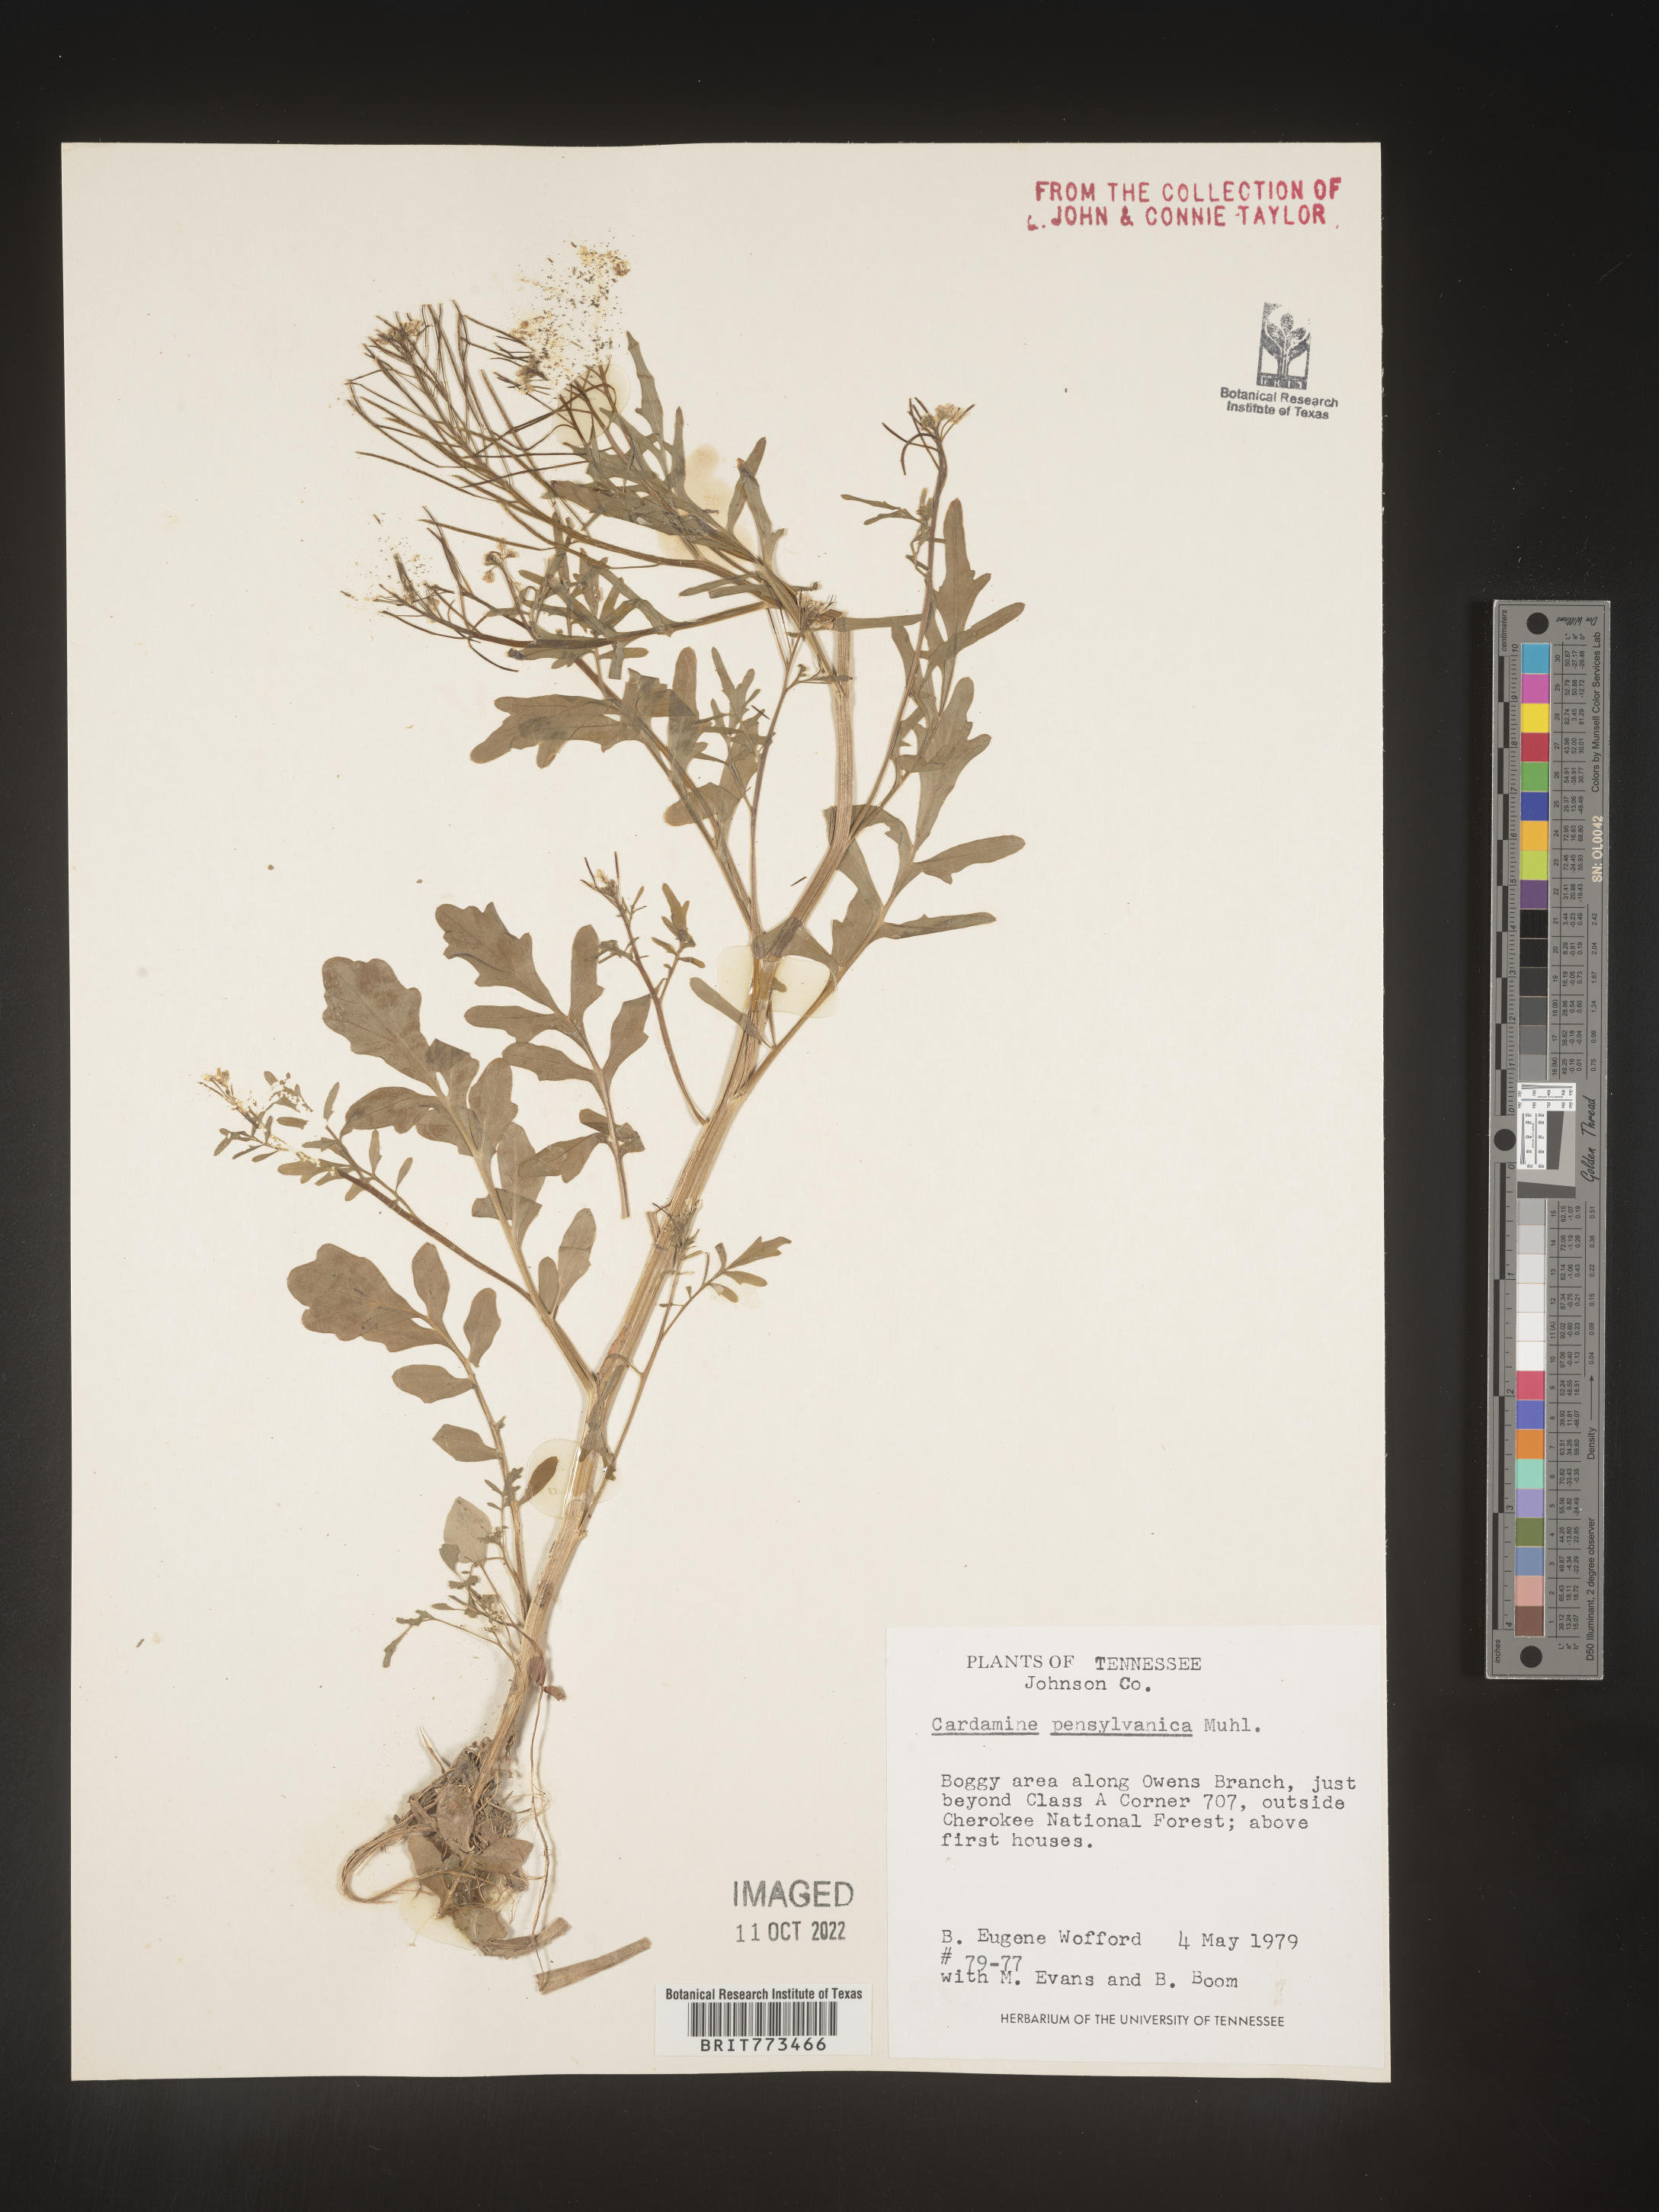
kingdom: Plantae
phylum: Tracheophyta
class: Magnoliopsida
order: Brassicales
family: Brassicaceae
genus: Cardamine
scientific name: Cardamine pensylvanica
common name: Pennsylvania bittercress
